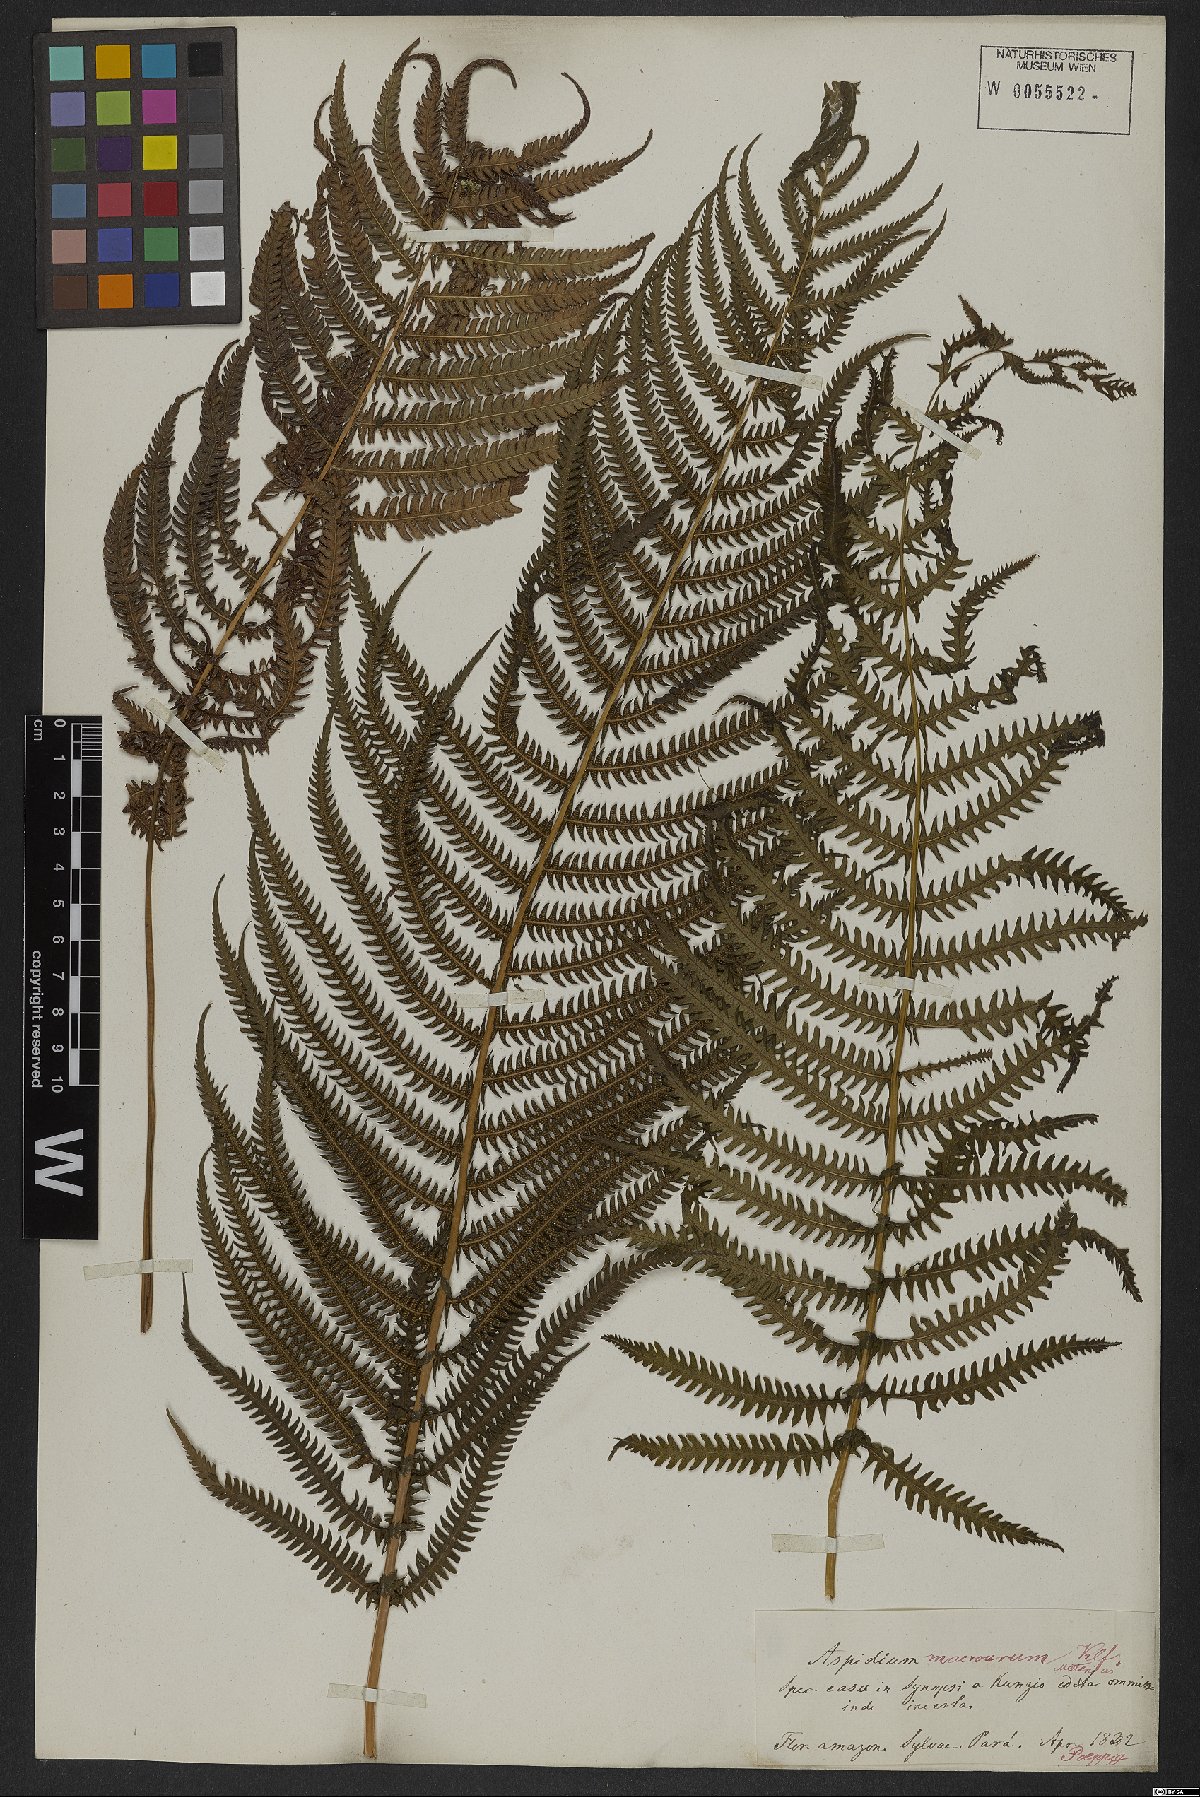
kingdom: Plantae
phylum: Tracheophyta
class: Polypodiopsida
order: Polypodiales
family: Thelypteridaceae
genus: Pelazoneuron
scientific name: Pelazoneuron patens
